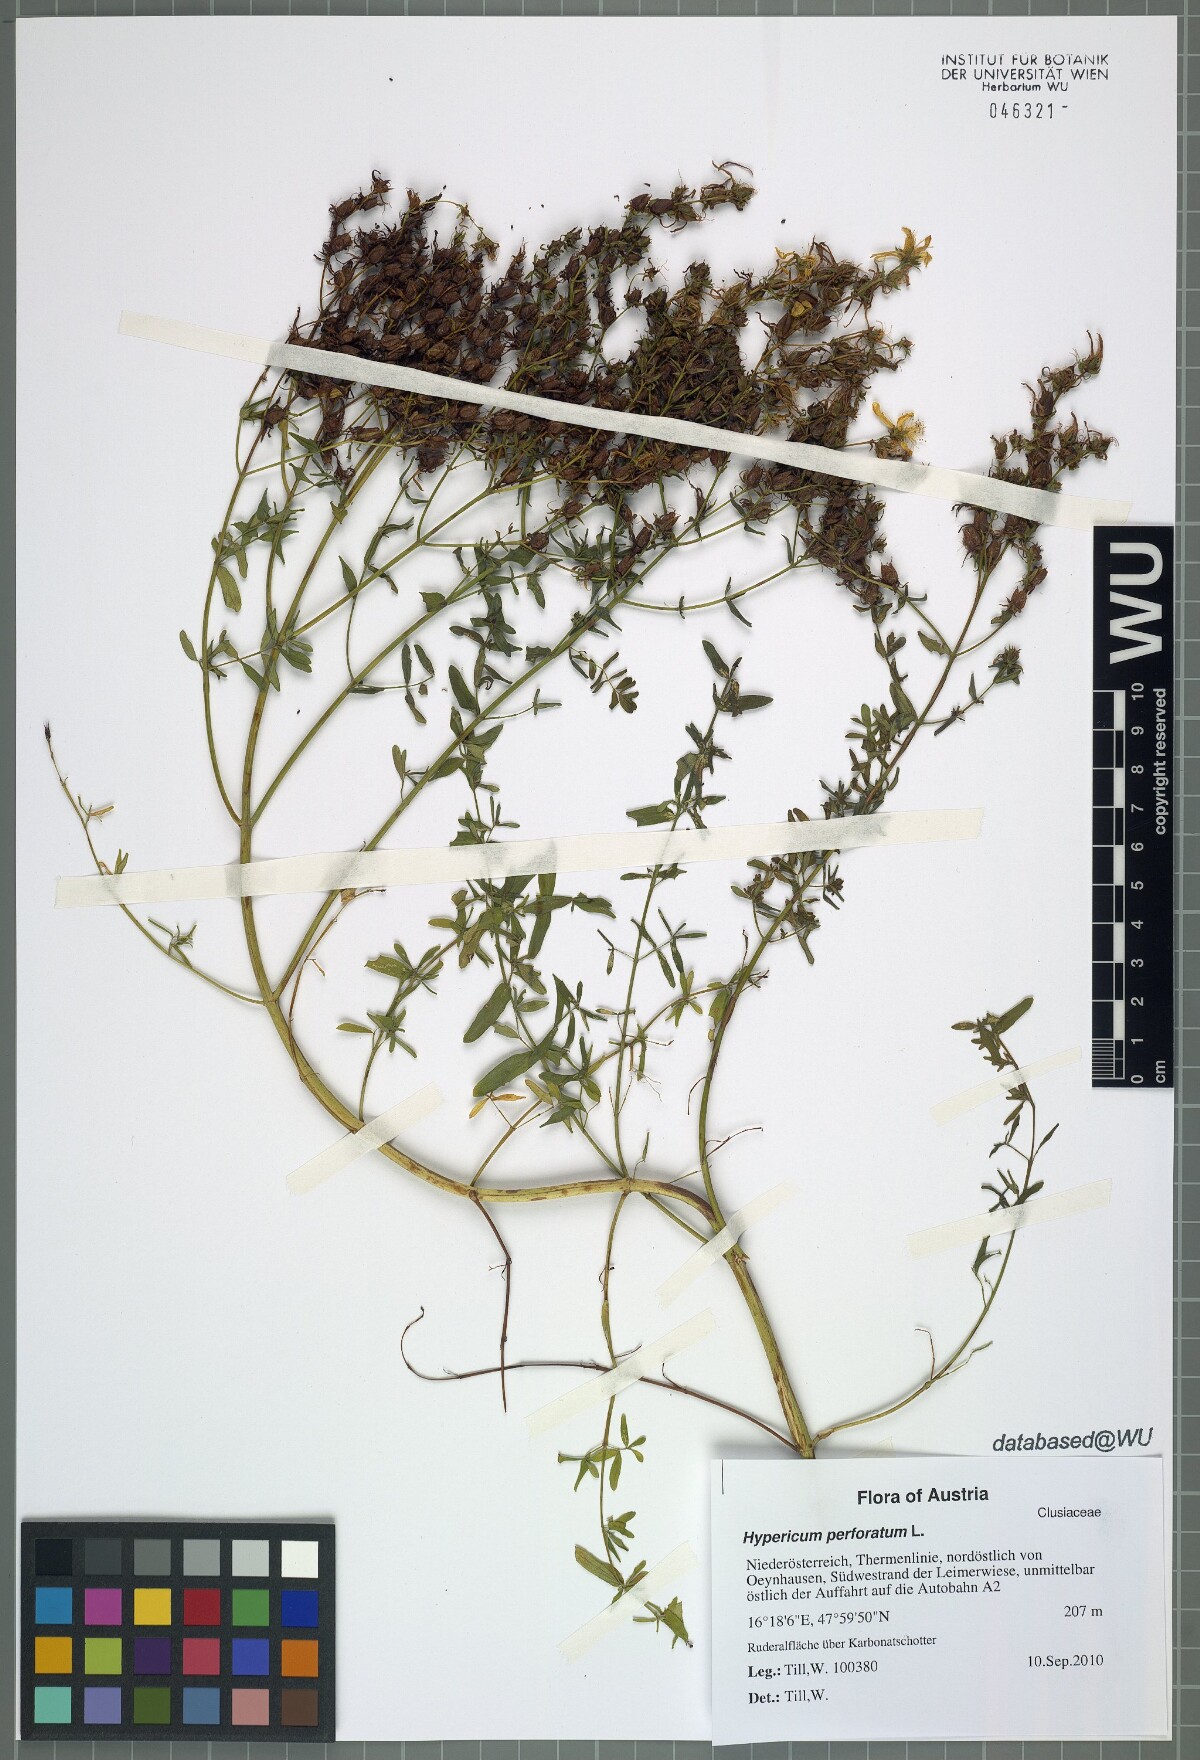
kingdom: Plantae
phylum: Tracheophyta
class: Magnoliopsida
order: Malpighiales
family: Hypericaceae
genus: Hypericum
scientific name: Hypericum perforatum
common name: Common st. johnswort
